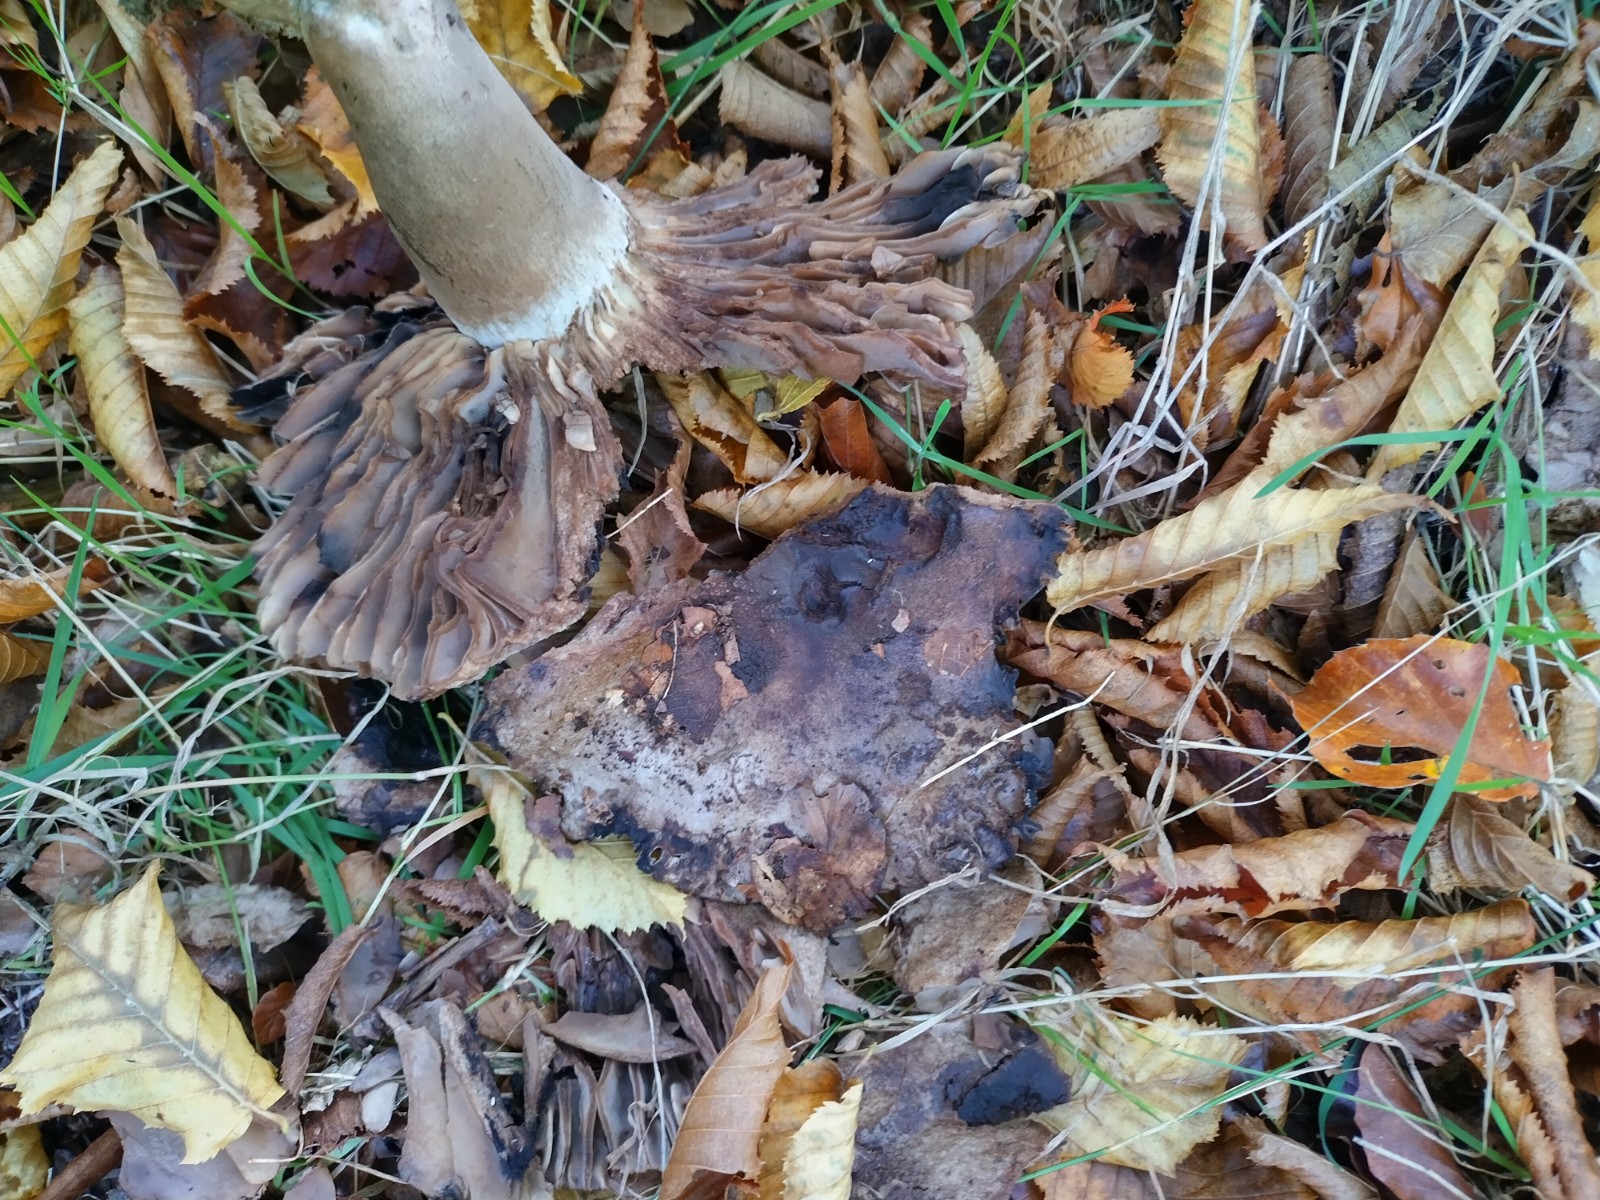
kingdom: Fungi
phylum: Basidiomycota
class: Agaricomycetes
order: Russulales
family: Russulaceae
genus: Russula
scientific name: Russula adusta
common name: sværtende skørhat
